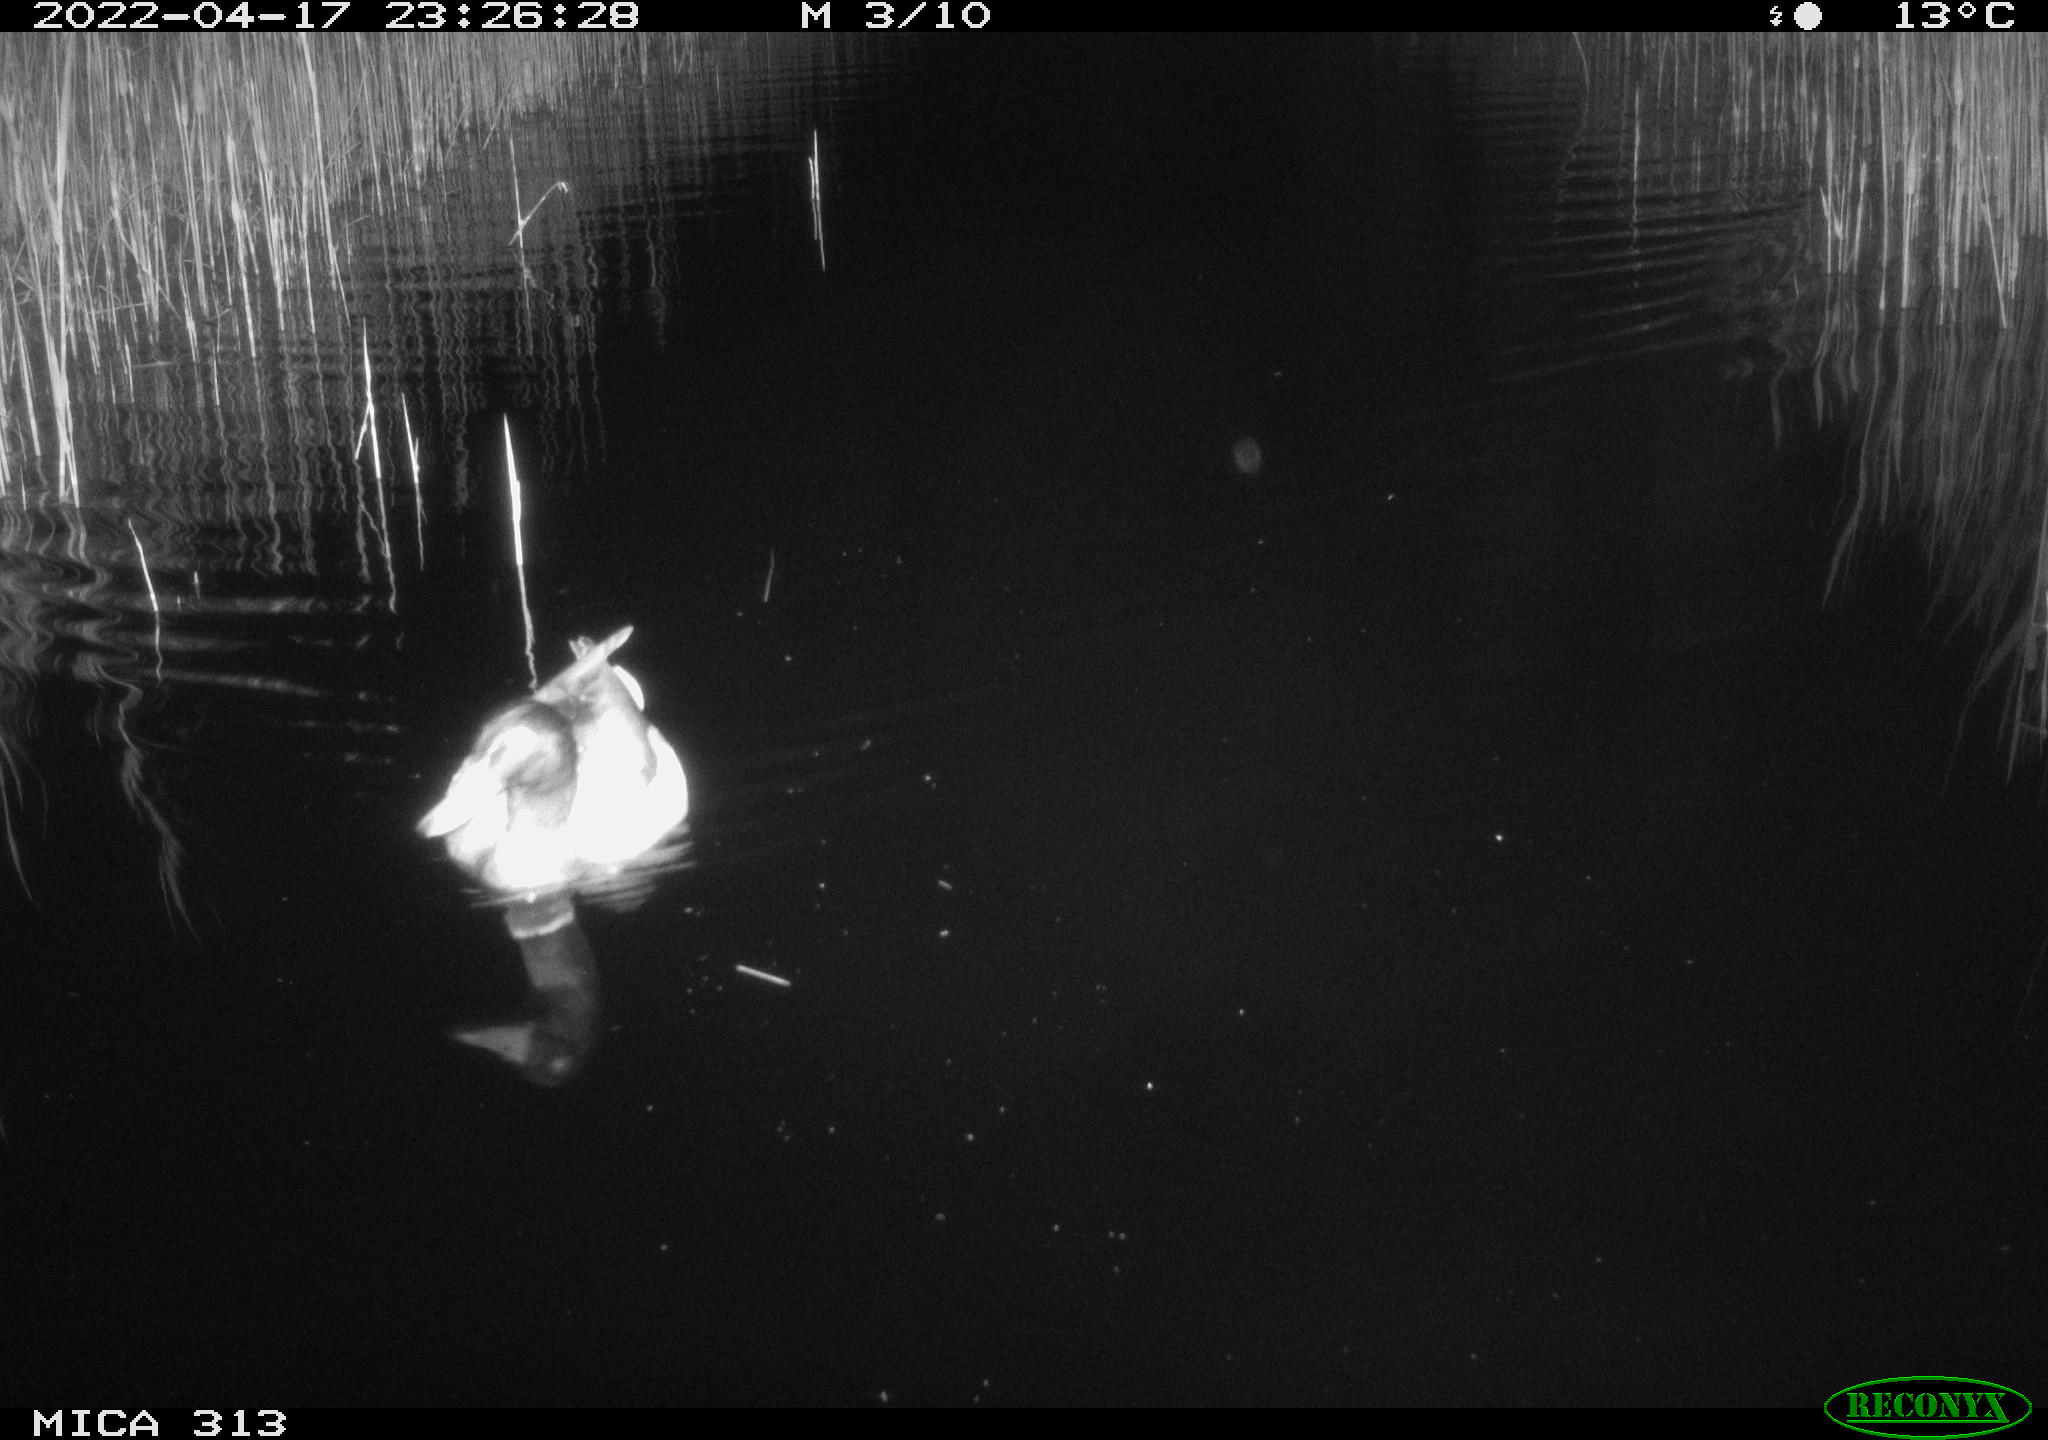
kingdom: Animalia
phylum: Chordata
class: Aves
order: Anseriformes
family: Anatidae
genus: Anas
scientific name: Anas platyrhynchos
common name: Mallard
